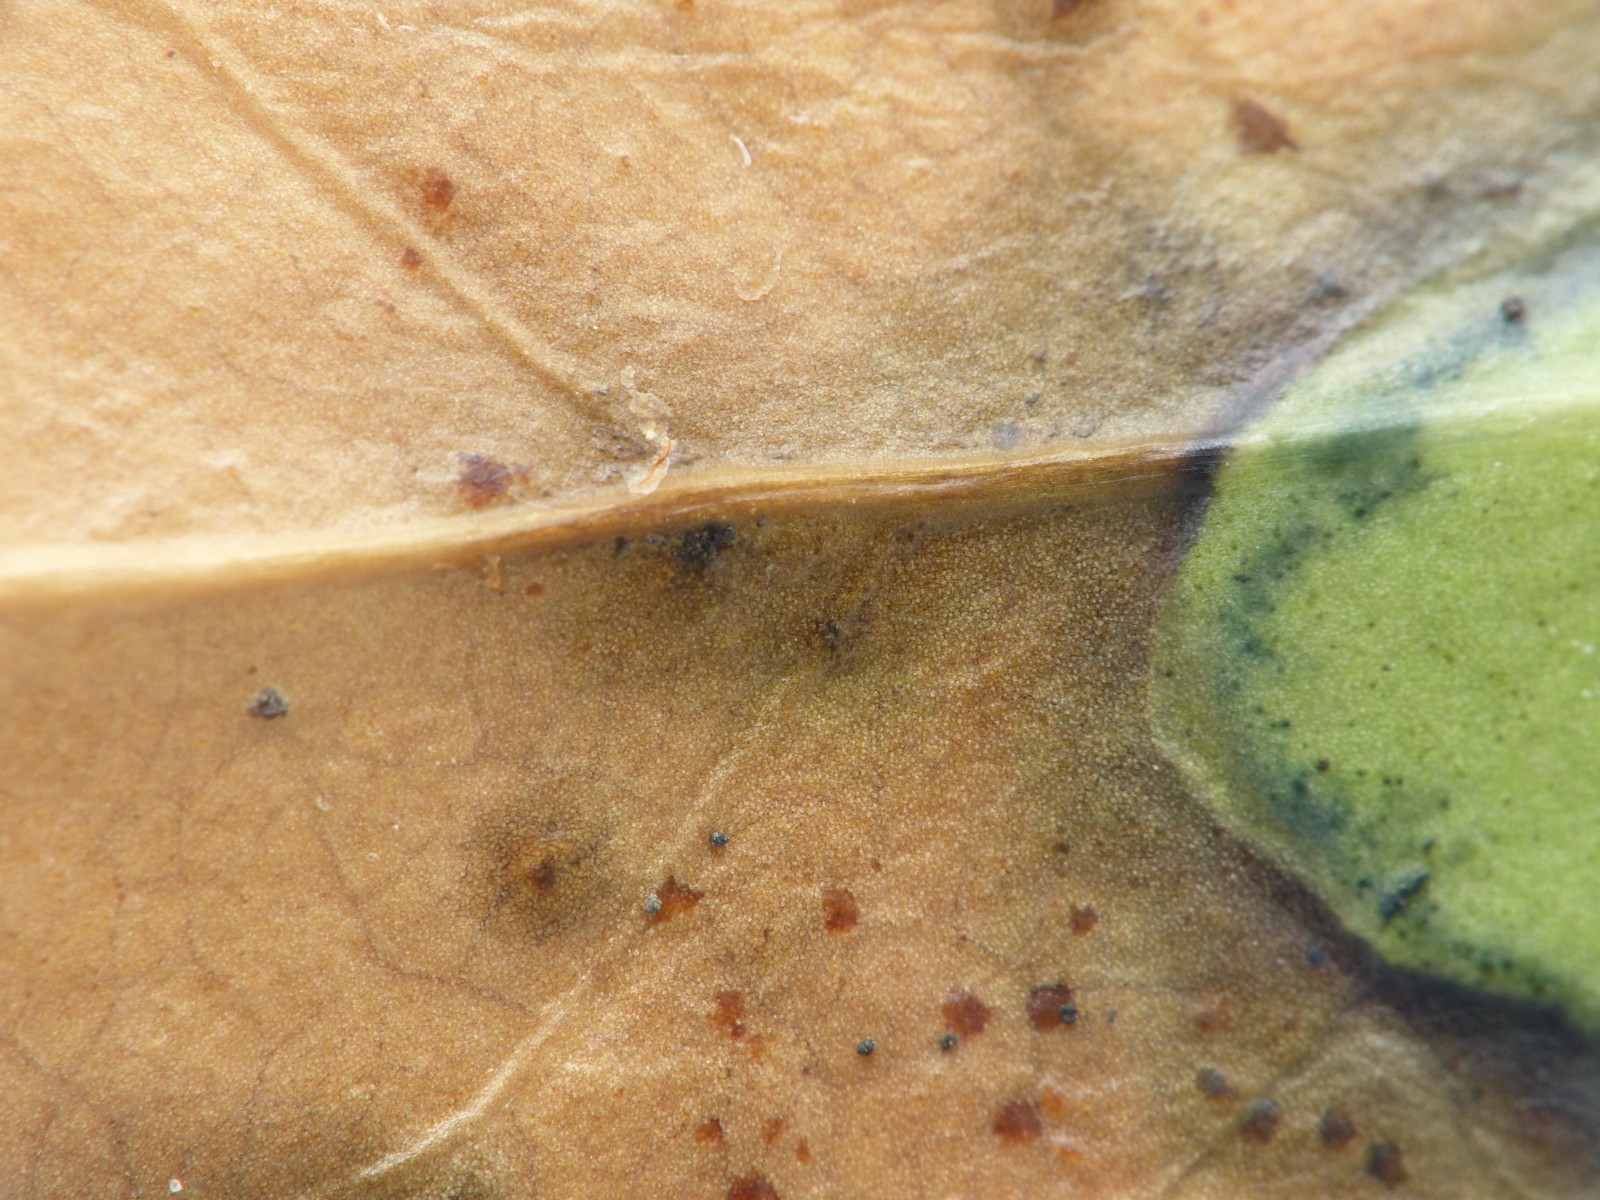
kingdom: Fungi
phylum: Ascomycota
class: Dothideomycetes
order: Pleosporales
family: Didymellaceae
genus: Boeremia
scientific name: Boeremia inoxydabilis
